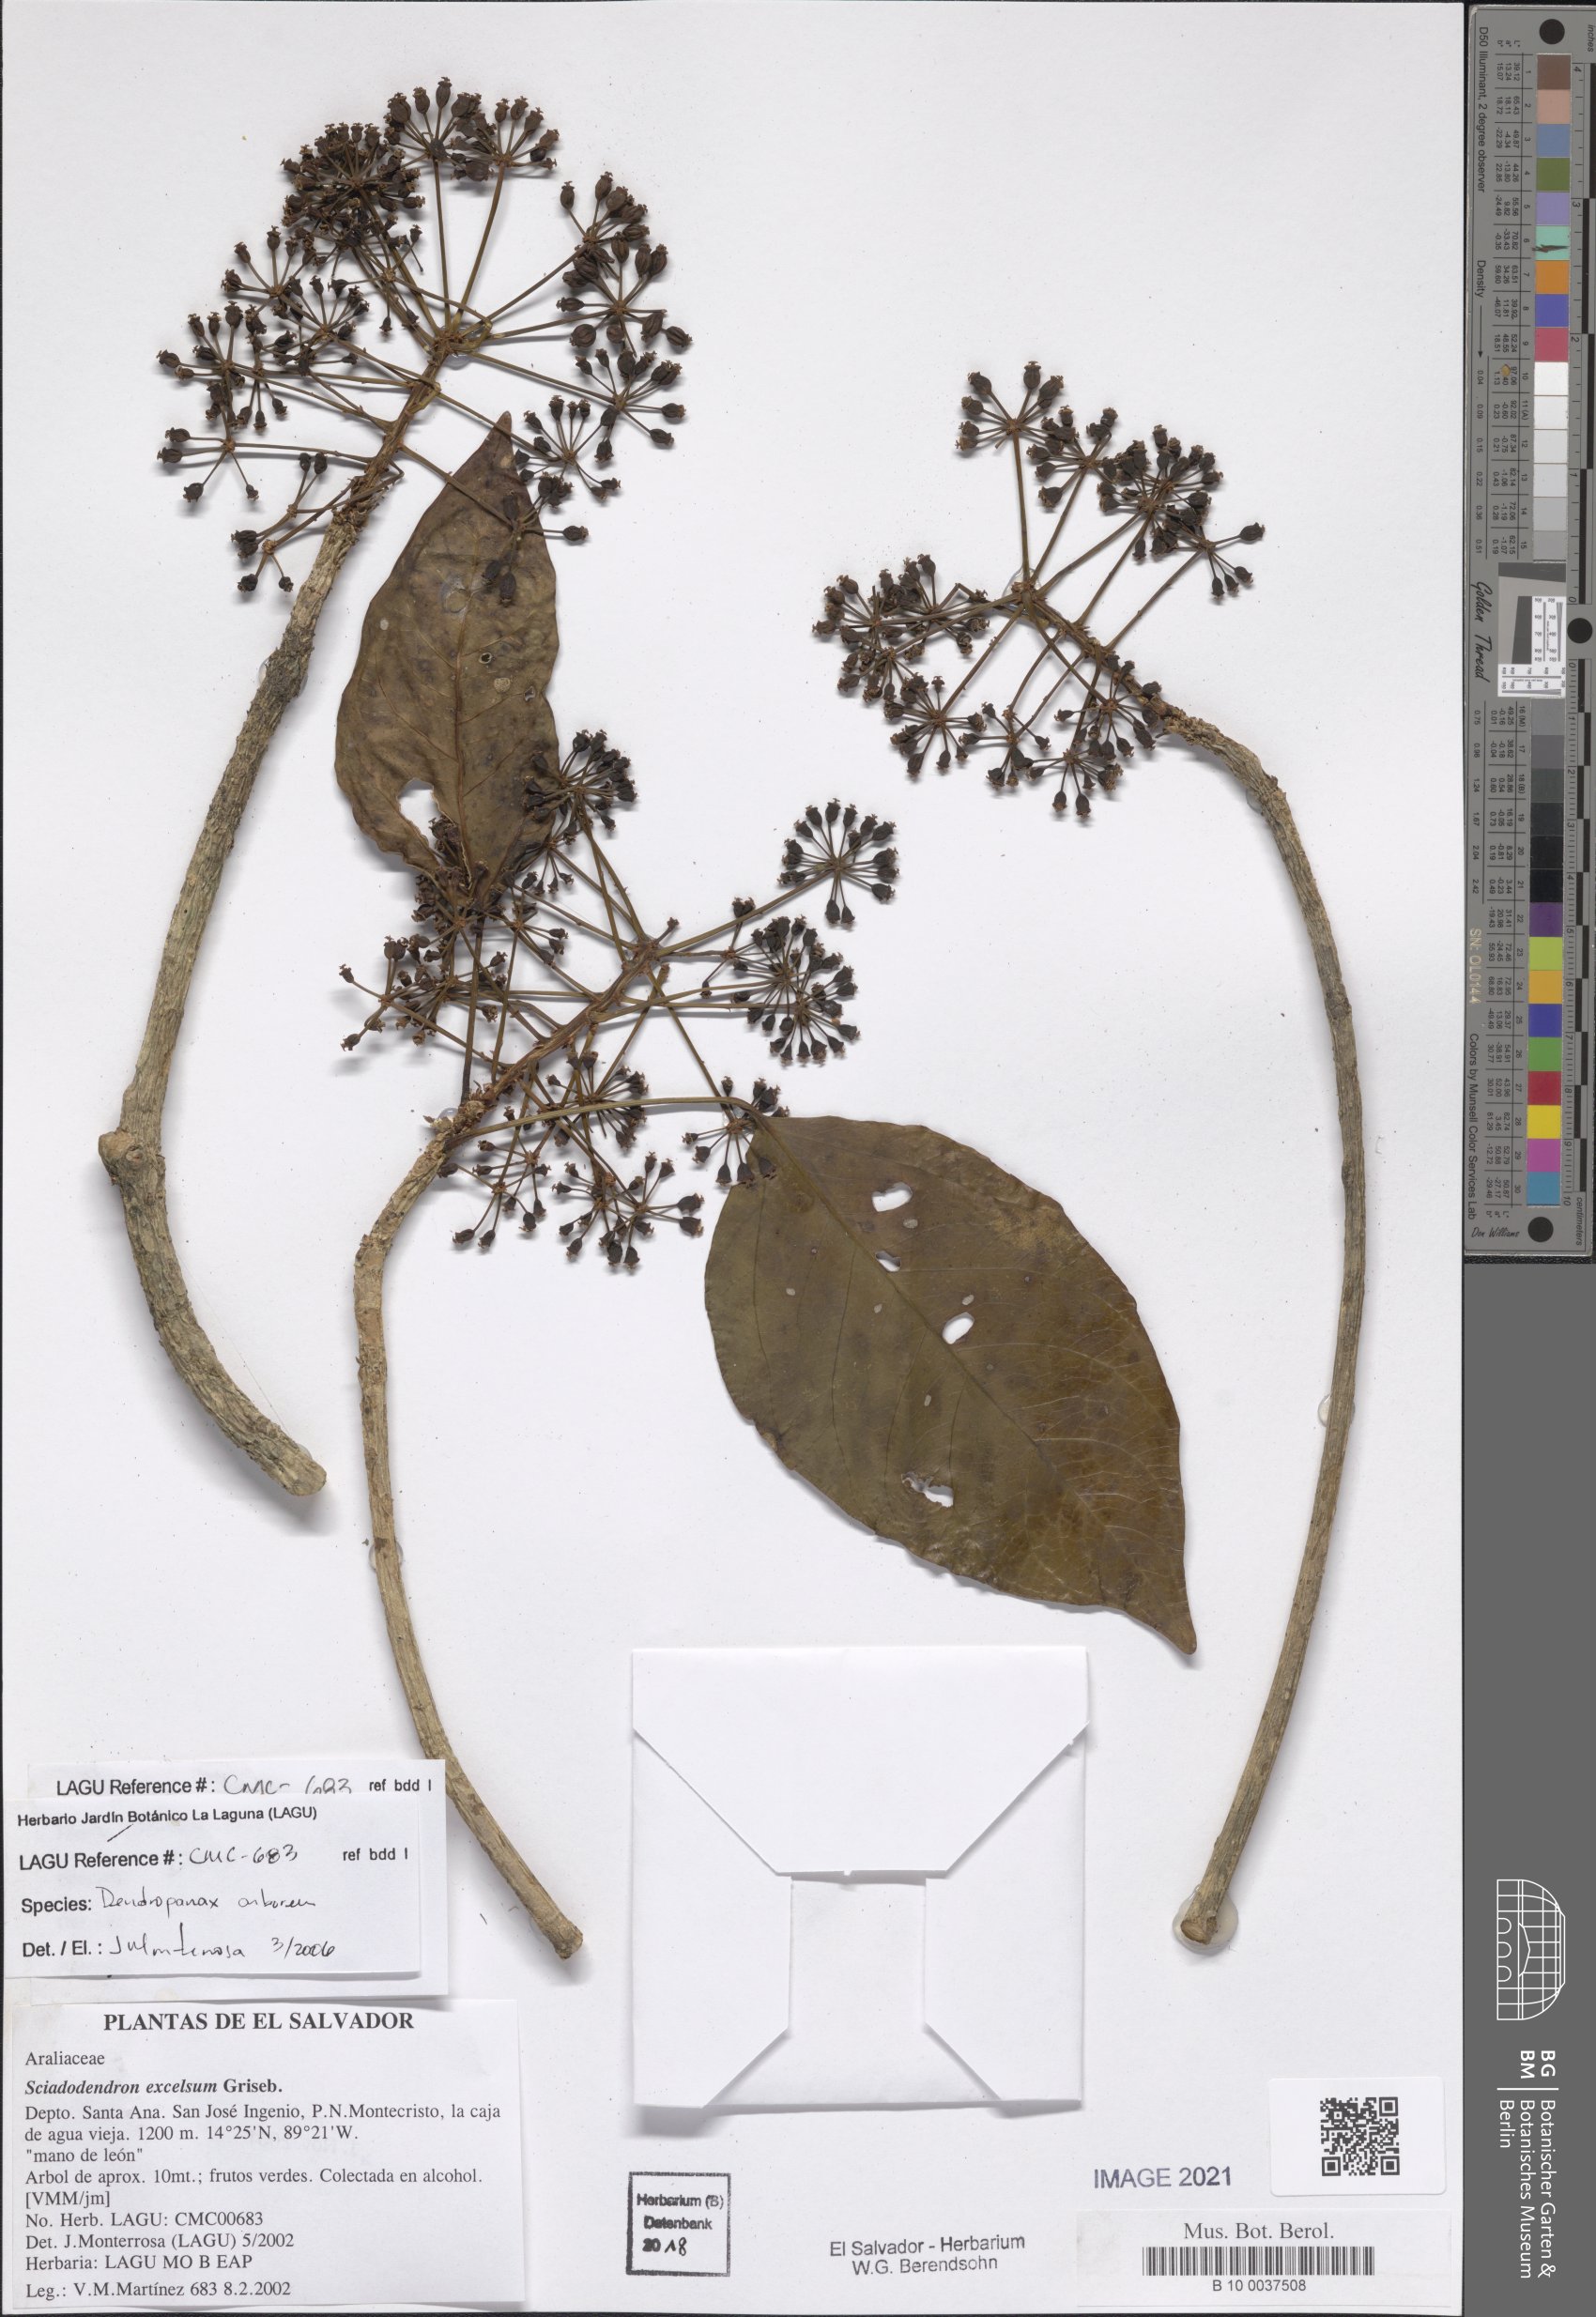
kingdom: Plantae
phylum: Tracheophyta
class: Magnoliopsida
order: Apiales
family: Araliaceae
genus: Dendropanax
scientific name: Dendropanax arboreus
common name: Potato-wood
